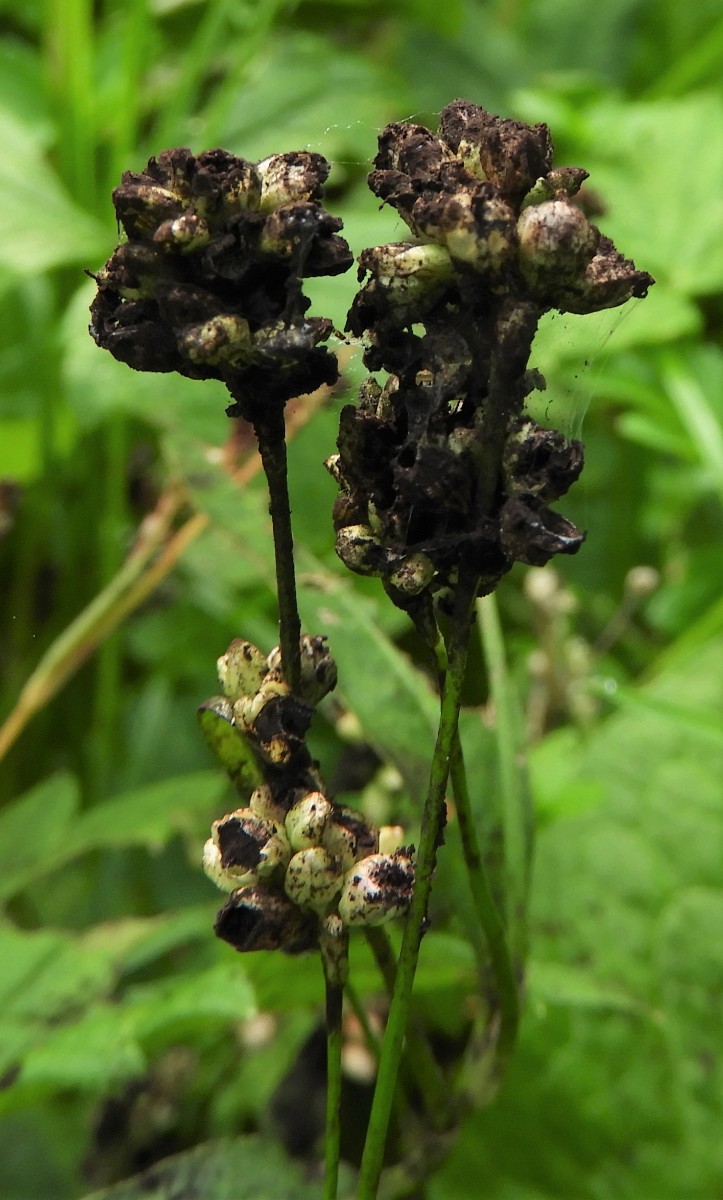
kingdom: Fungi
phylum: Basidiomycota
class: Microbotryomycetes
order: Microbotryales
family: Microbotryaceae
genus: Sphacelotheca
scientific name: Sphacelotheca hydropiperis
